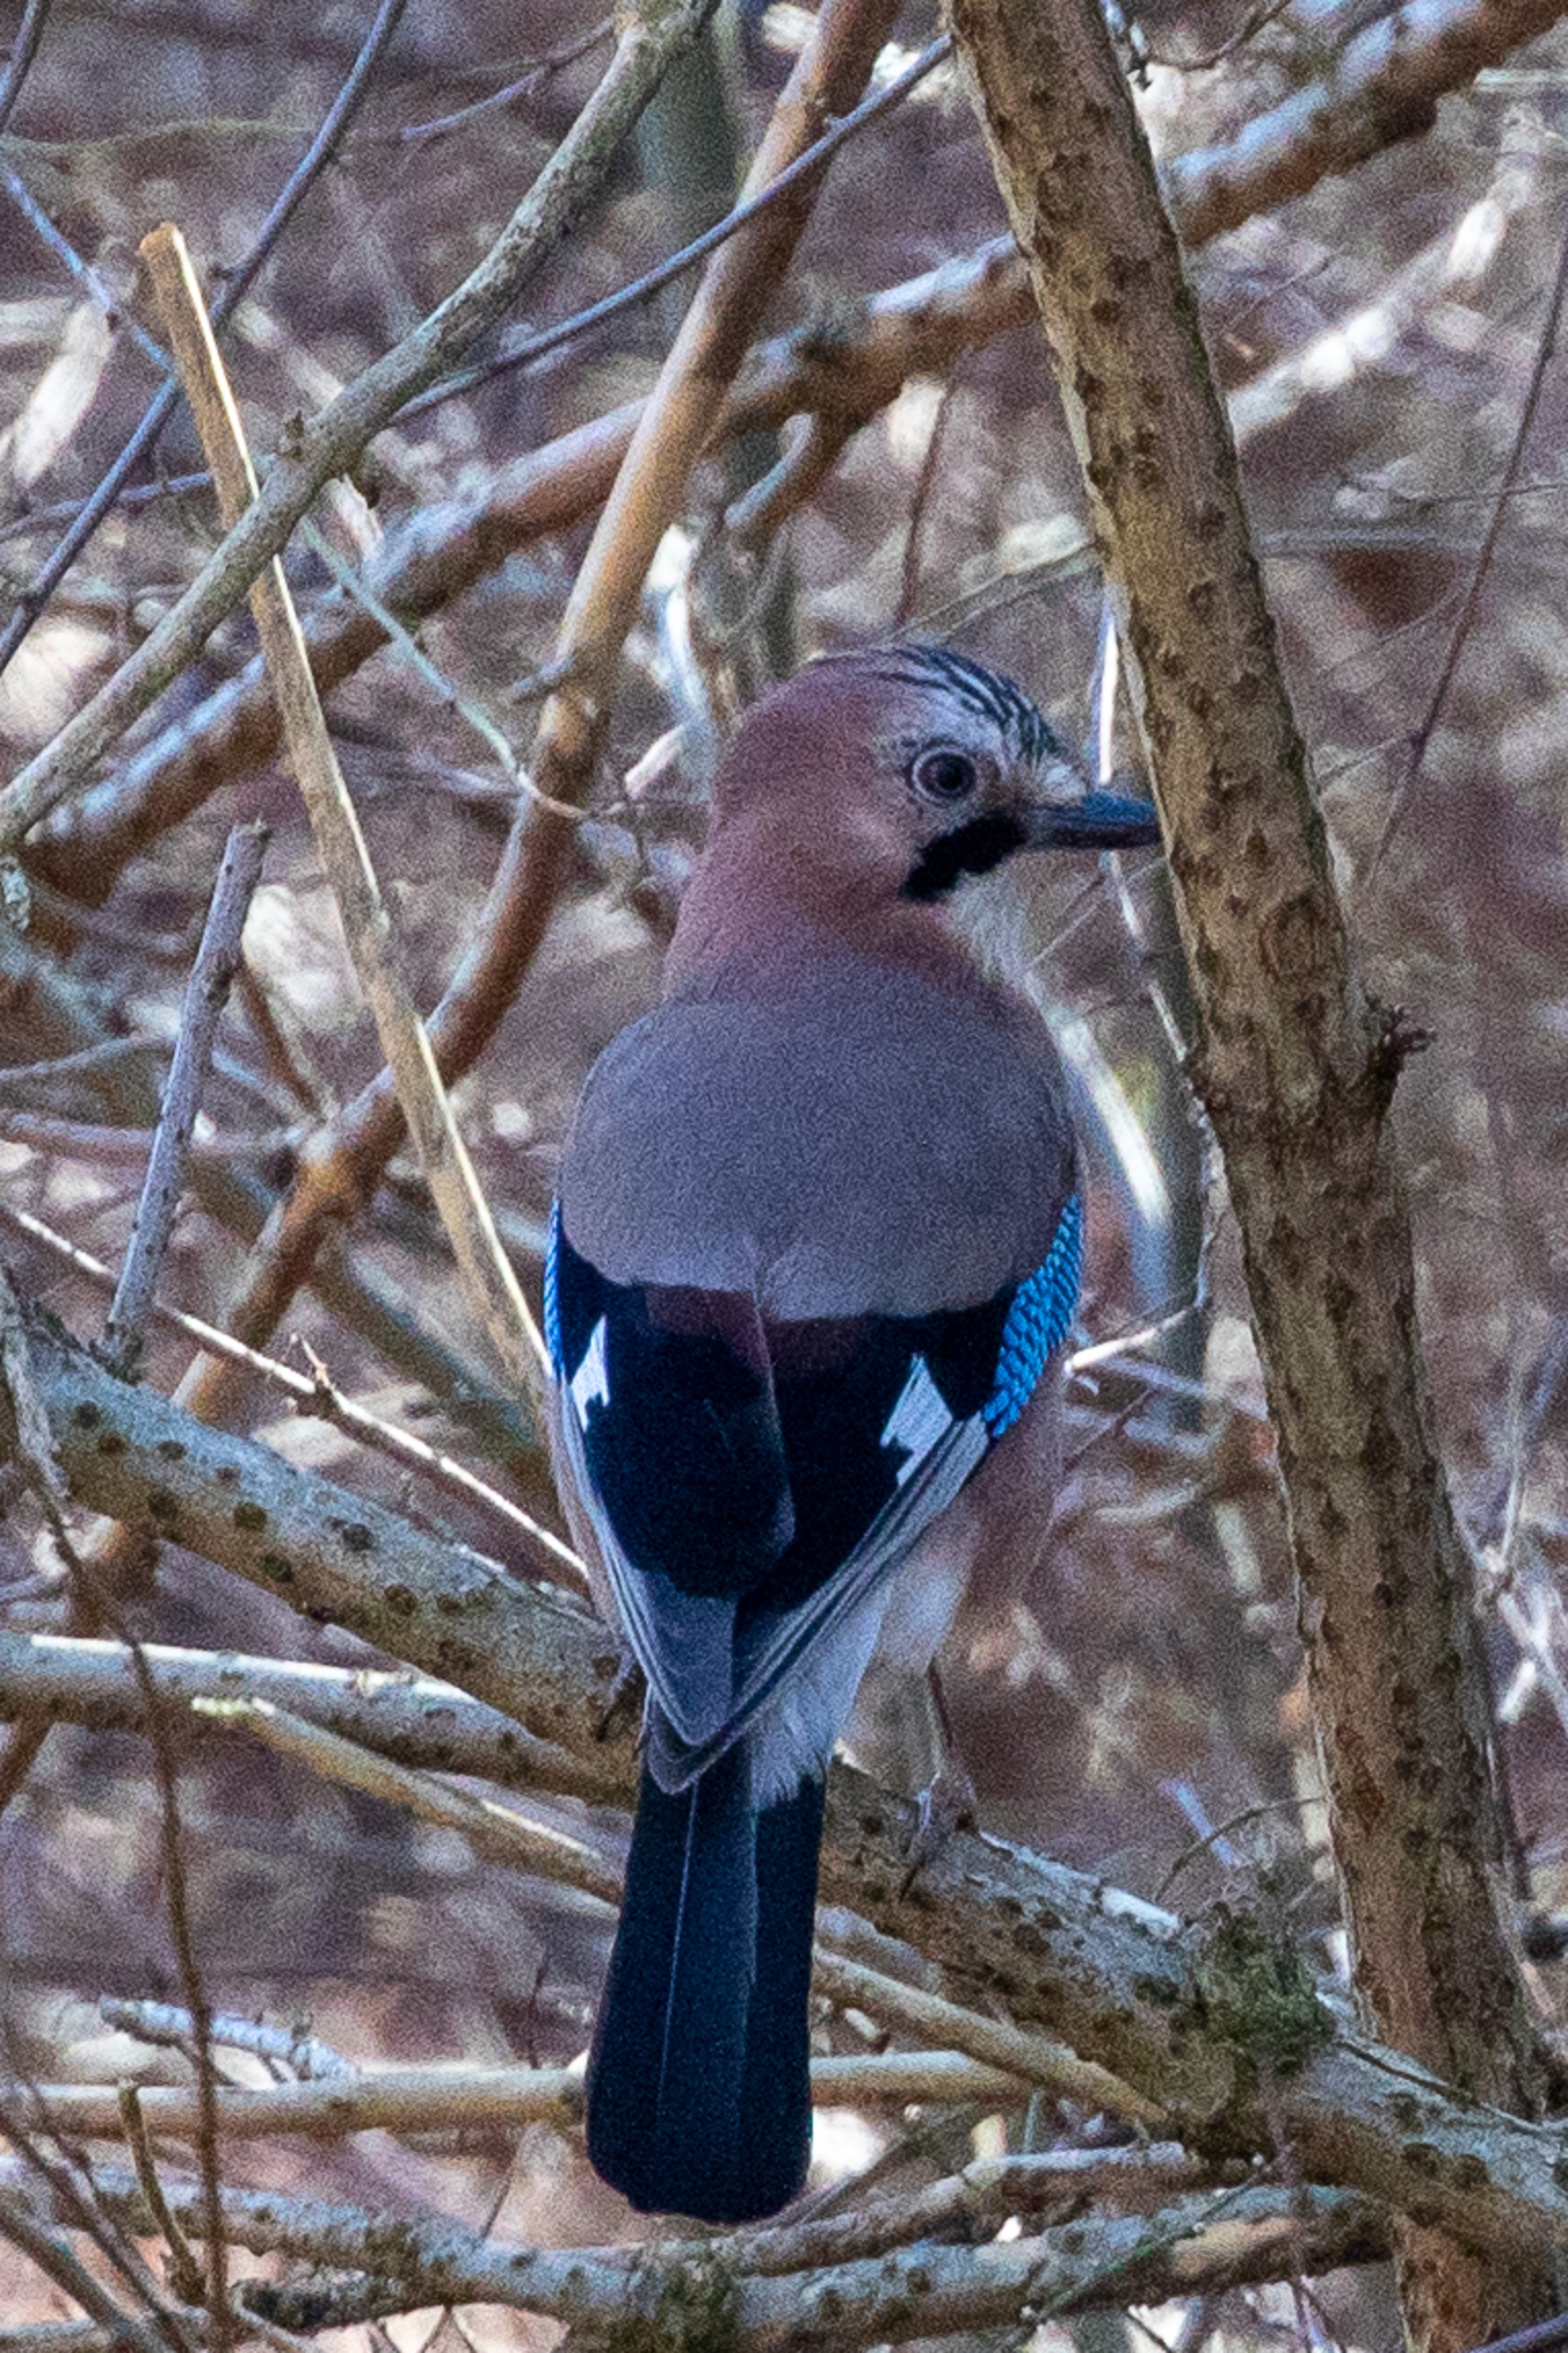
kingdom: Animalia
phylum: Chordata
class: Aves
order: Passeriformes
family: Corvidae
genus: Garrulus
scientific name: Garrulus glandarius
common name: Skovskade
